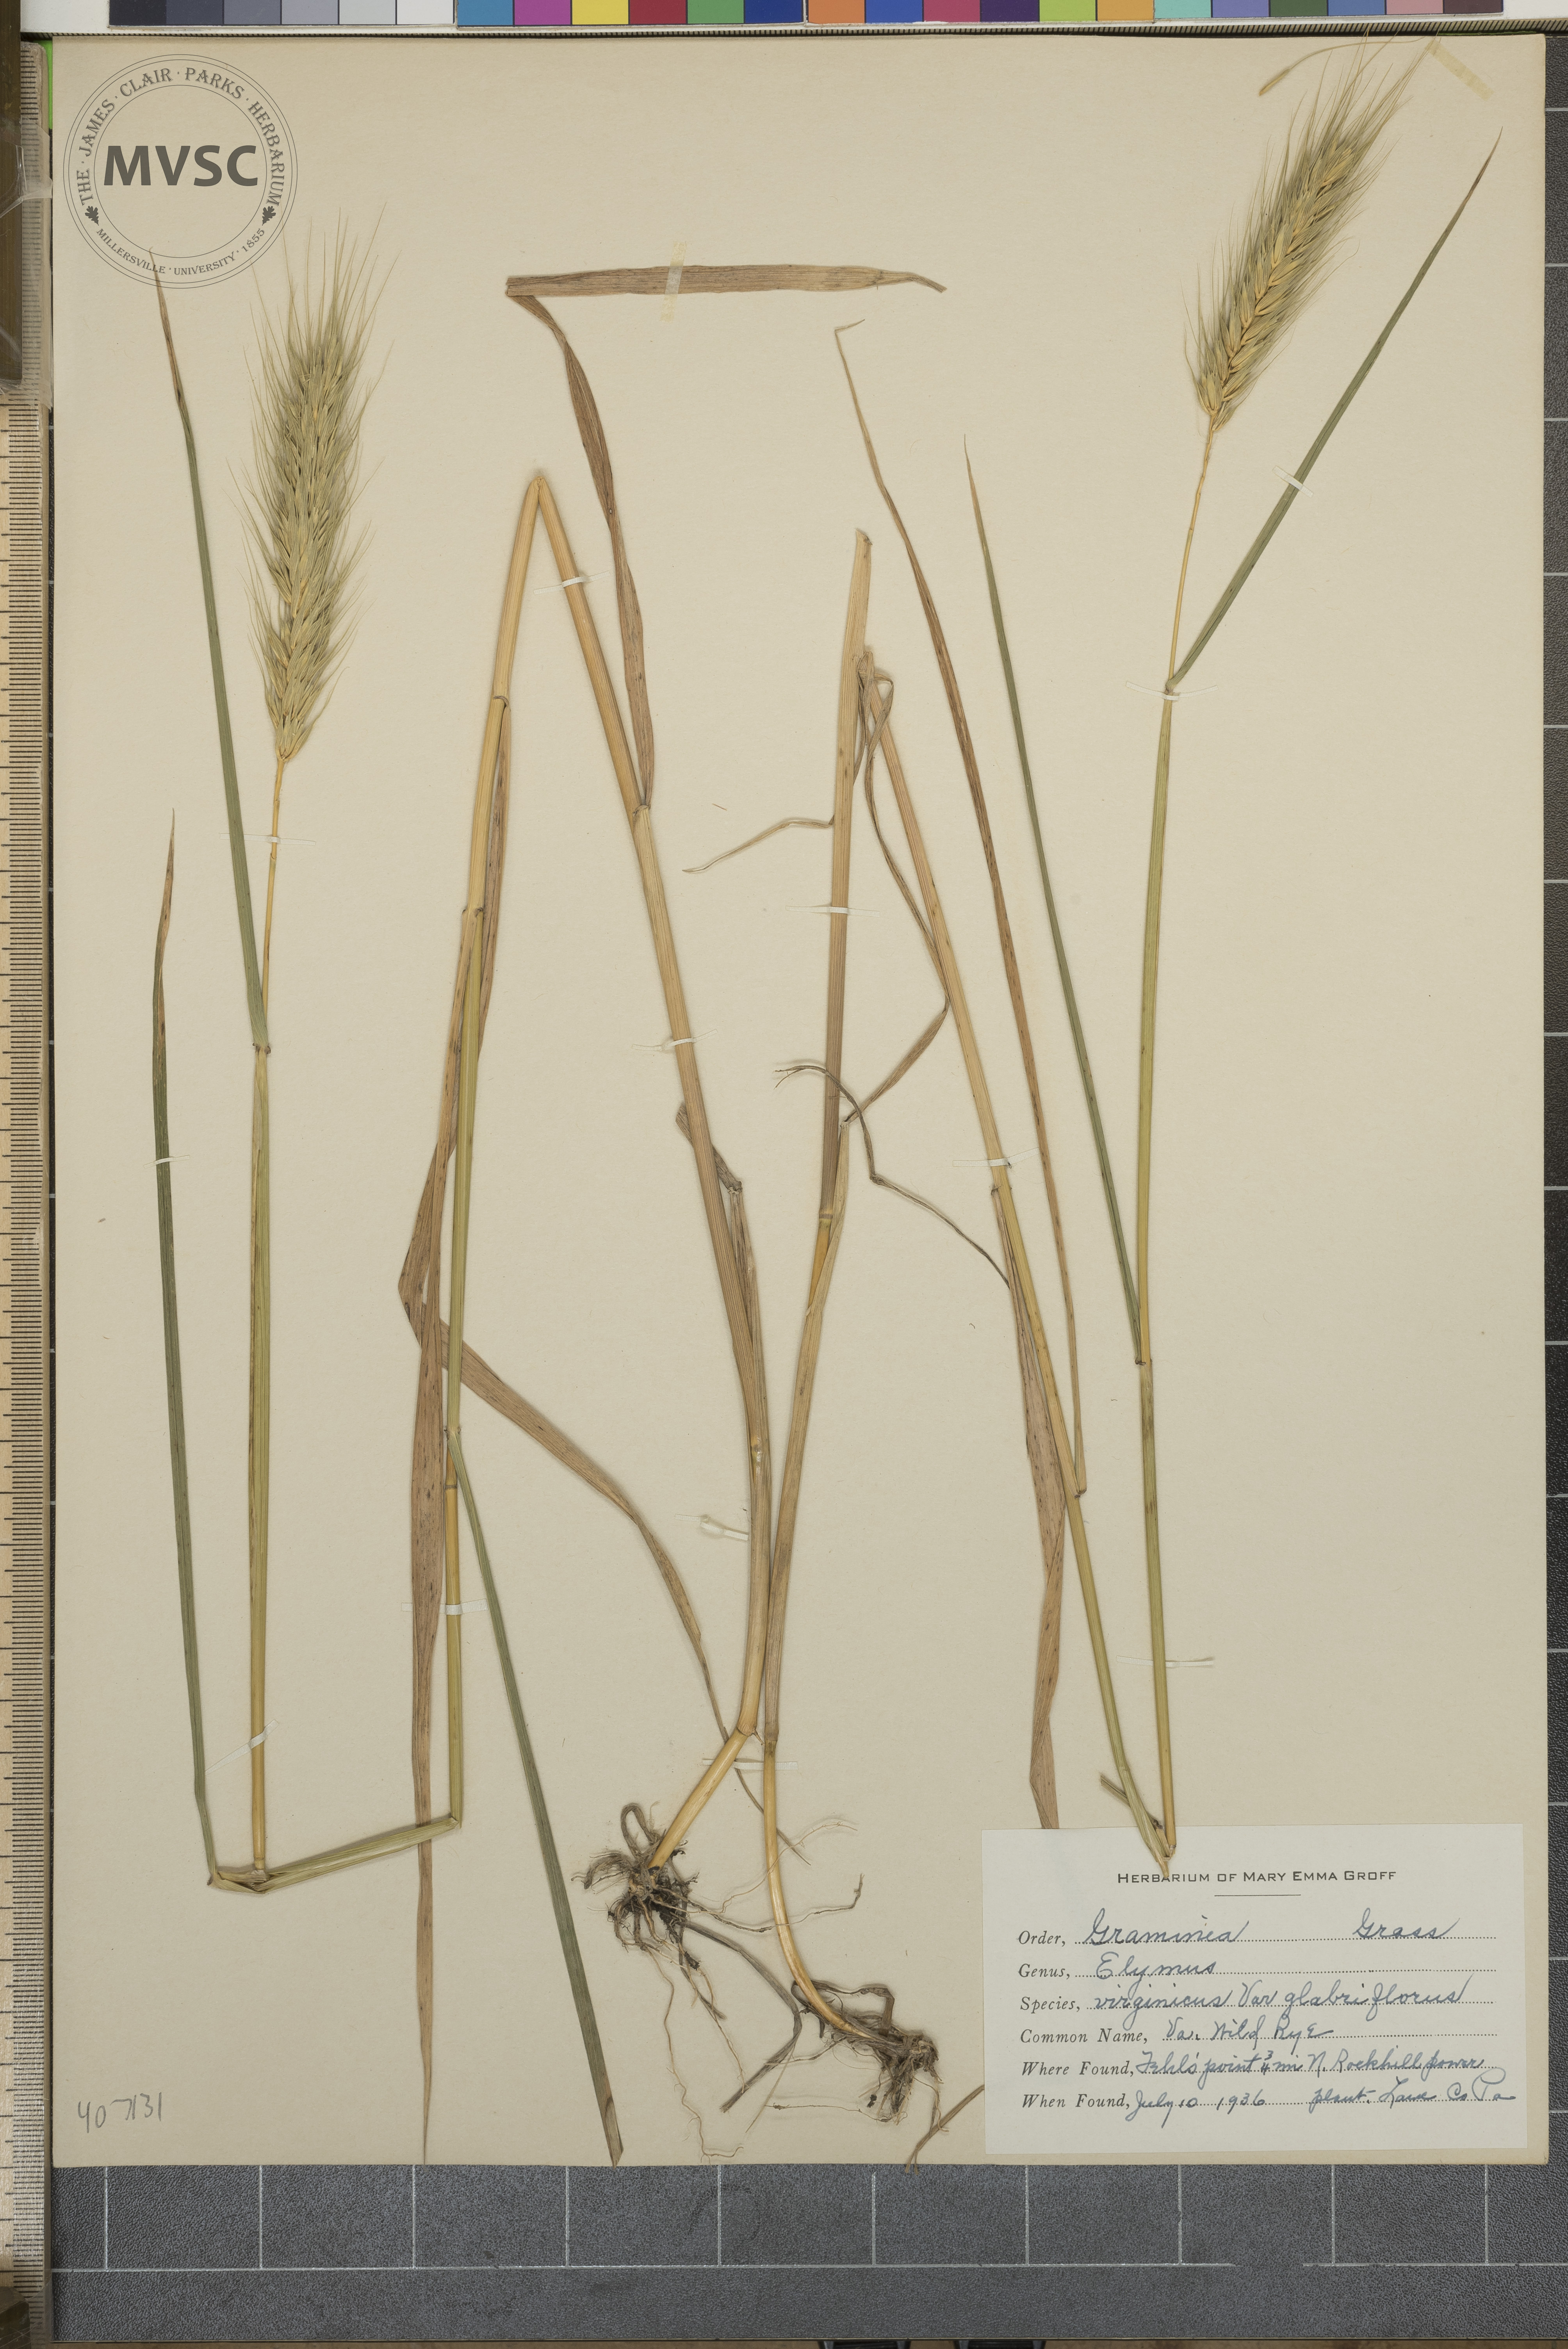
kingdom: Plantae
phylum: Tracheophyta
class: Liliopsida
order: Poales
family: Poaceae
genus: Elymus
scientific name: Elymus virginicus
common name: Common eastern wildrye
